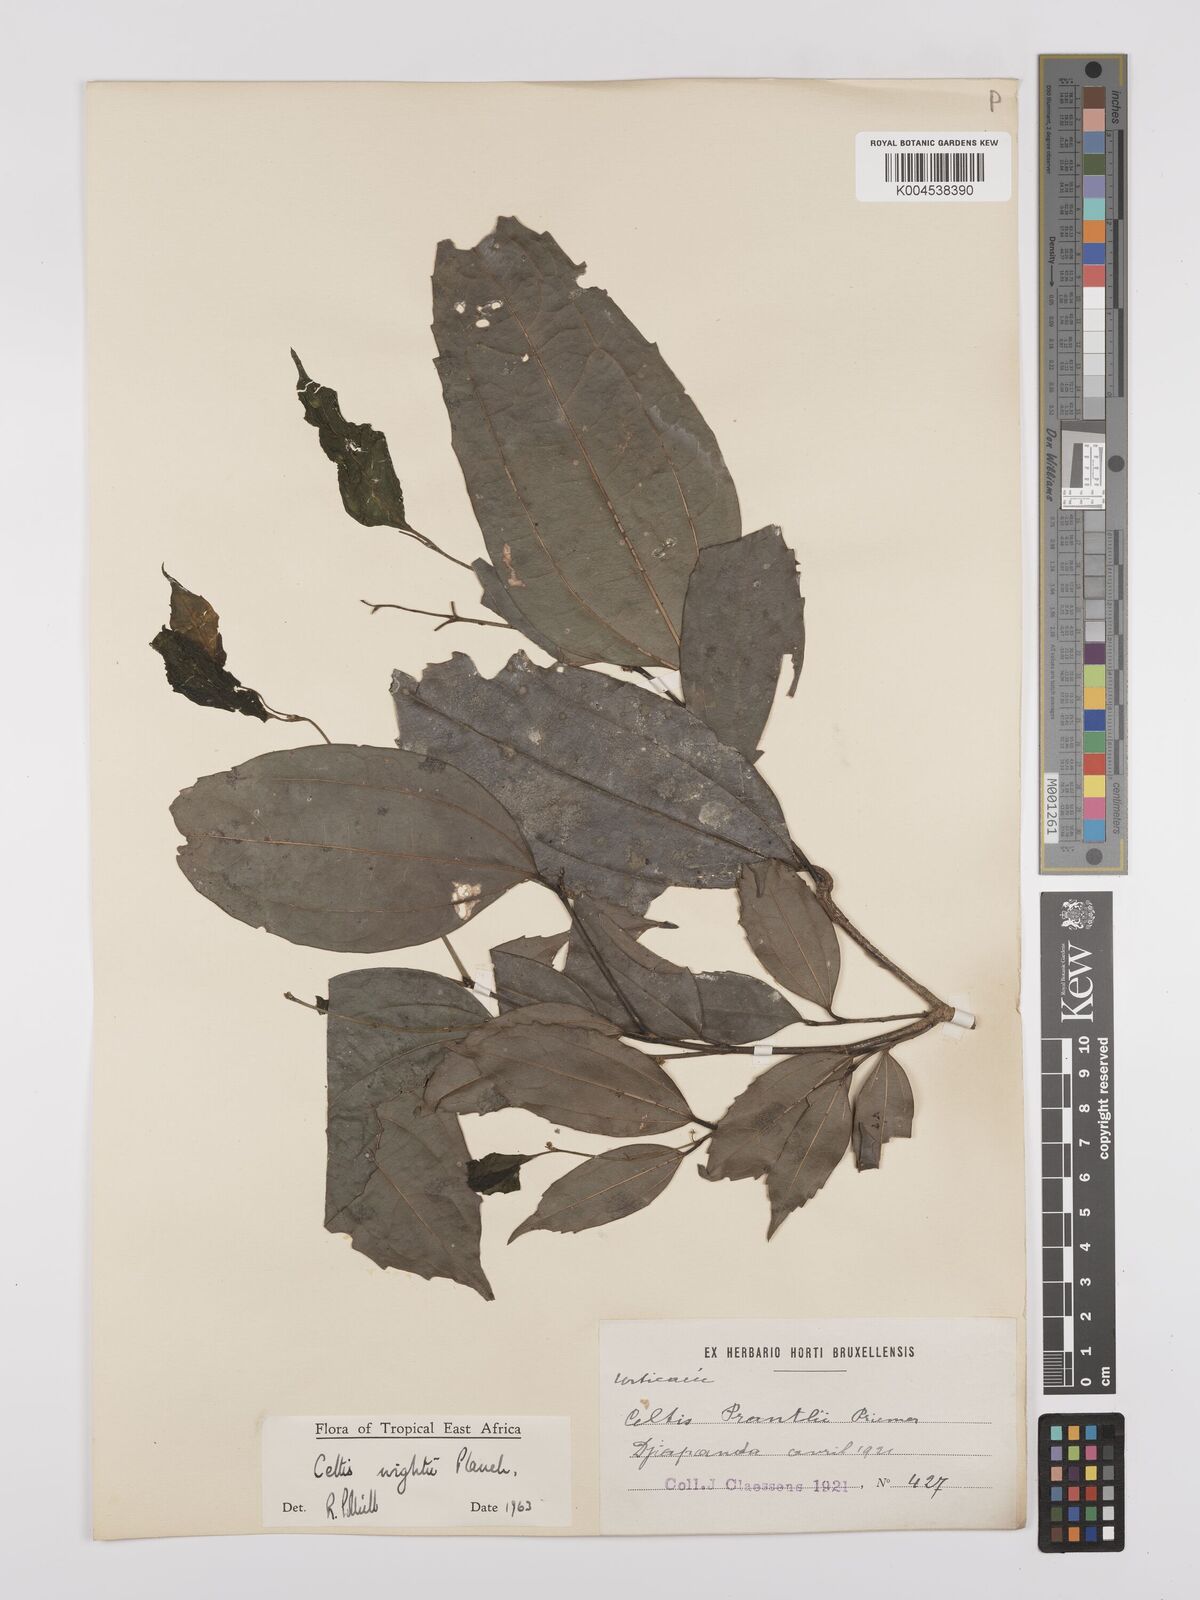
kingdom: Plantae
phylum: Tracheophyta
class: Magnoliopsida
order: Rosales
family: Cannabaceae
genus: Celtis
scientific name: Celtis philippensis
